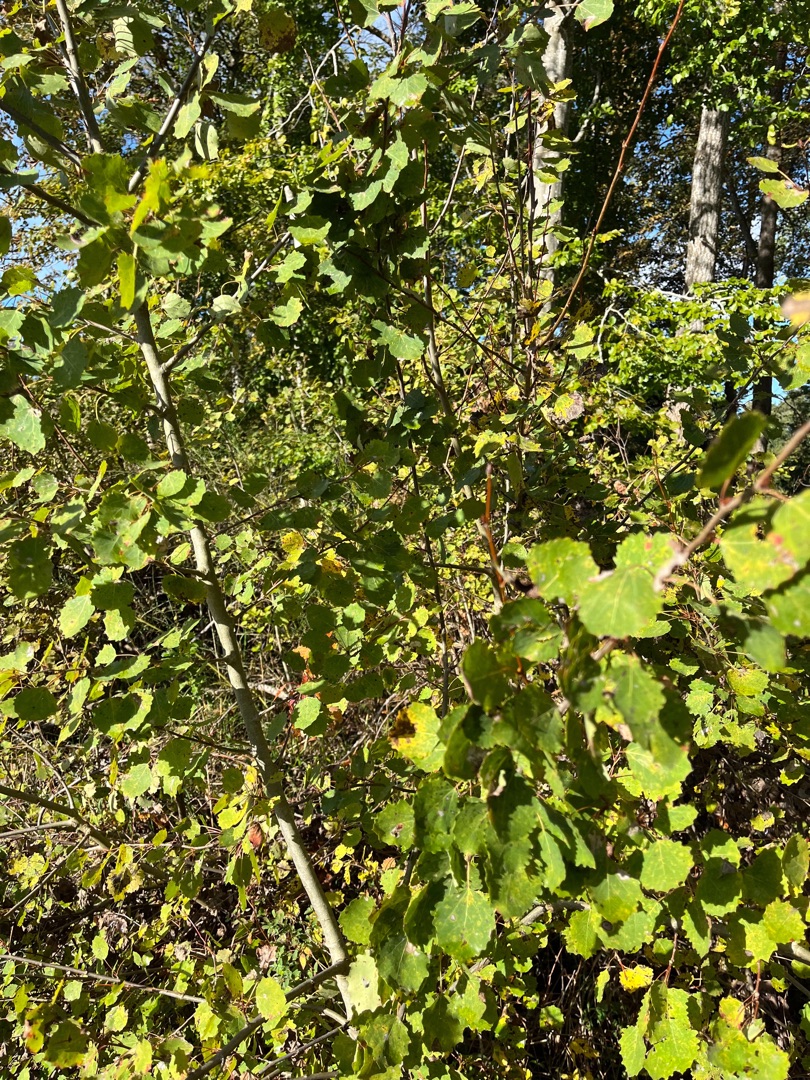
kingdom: Plantae
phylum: Tracheophyta
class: Magnoliopsida
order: Malpighiales
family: Salicaceae
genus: Populus
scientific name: Populus tremula
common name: Bævreasp
